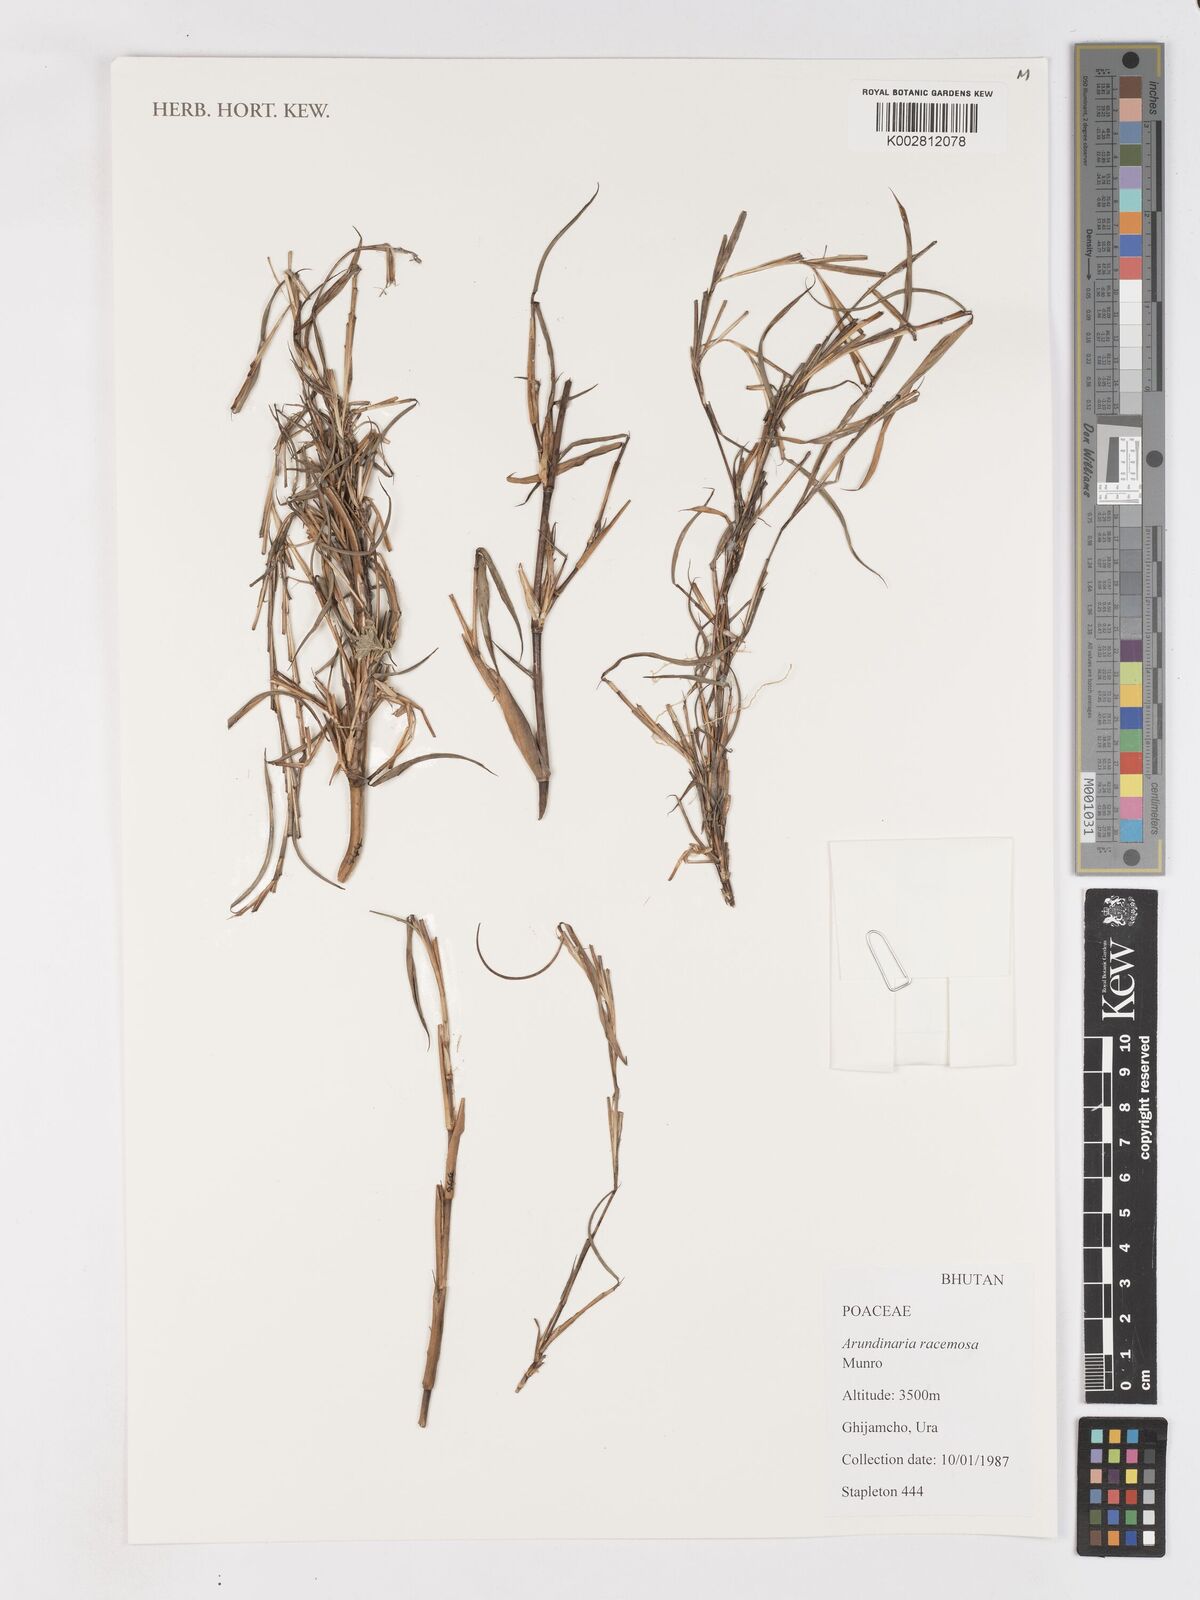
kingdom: Plantae
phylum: Tracheophyta
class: Liliopsida
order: Poales
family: Poaceae
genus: Sarocalamus
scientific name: Sarocalamus racemosus
